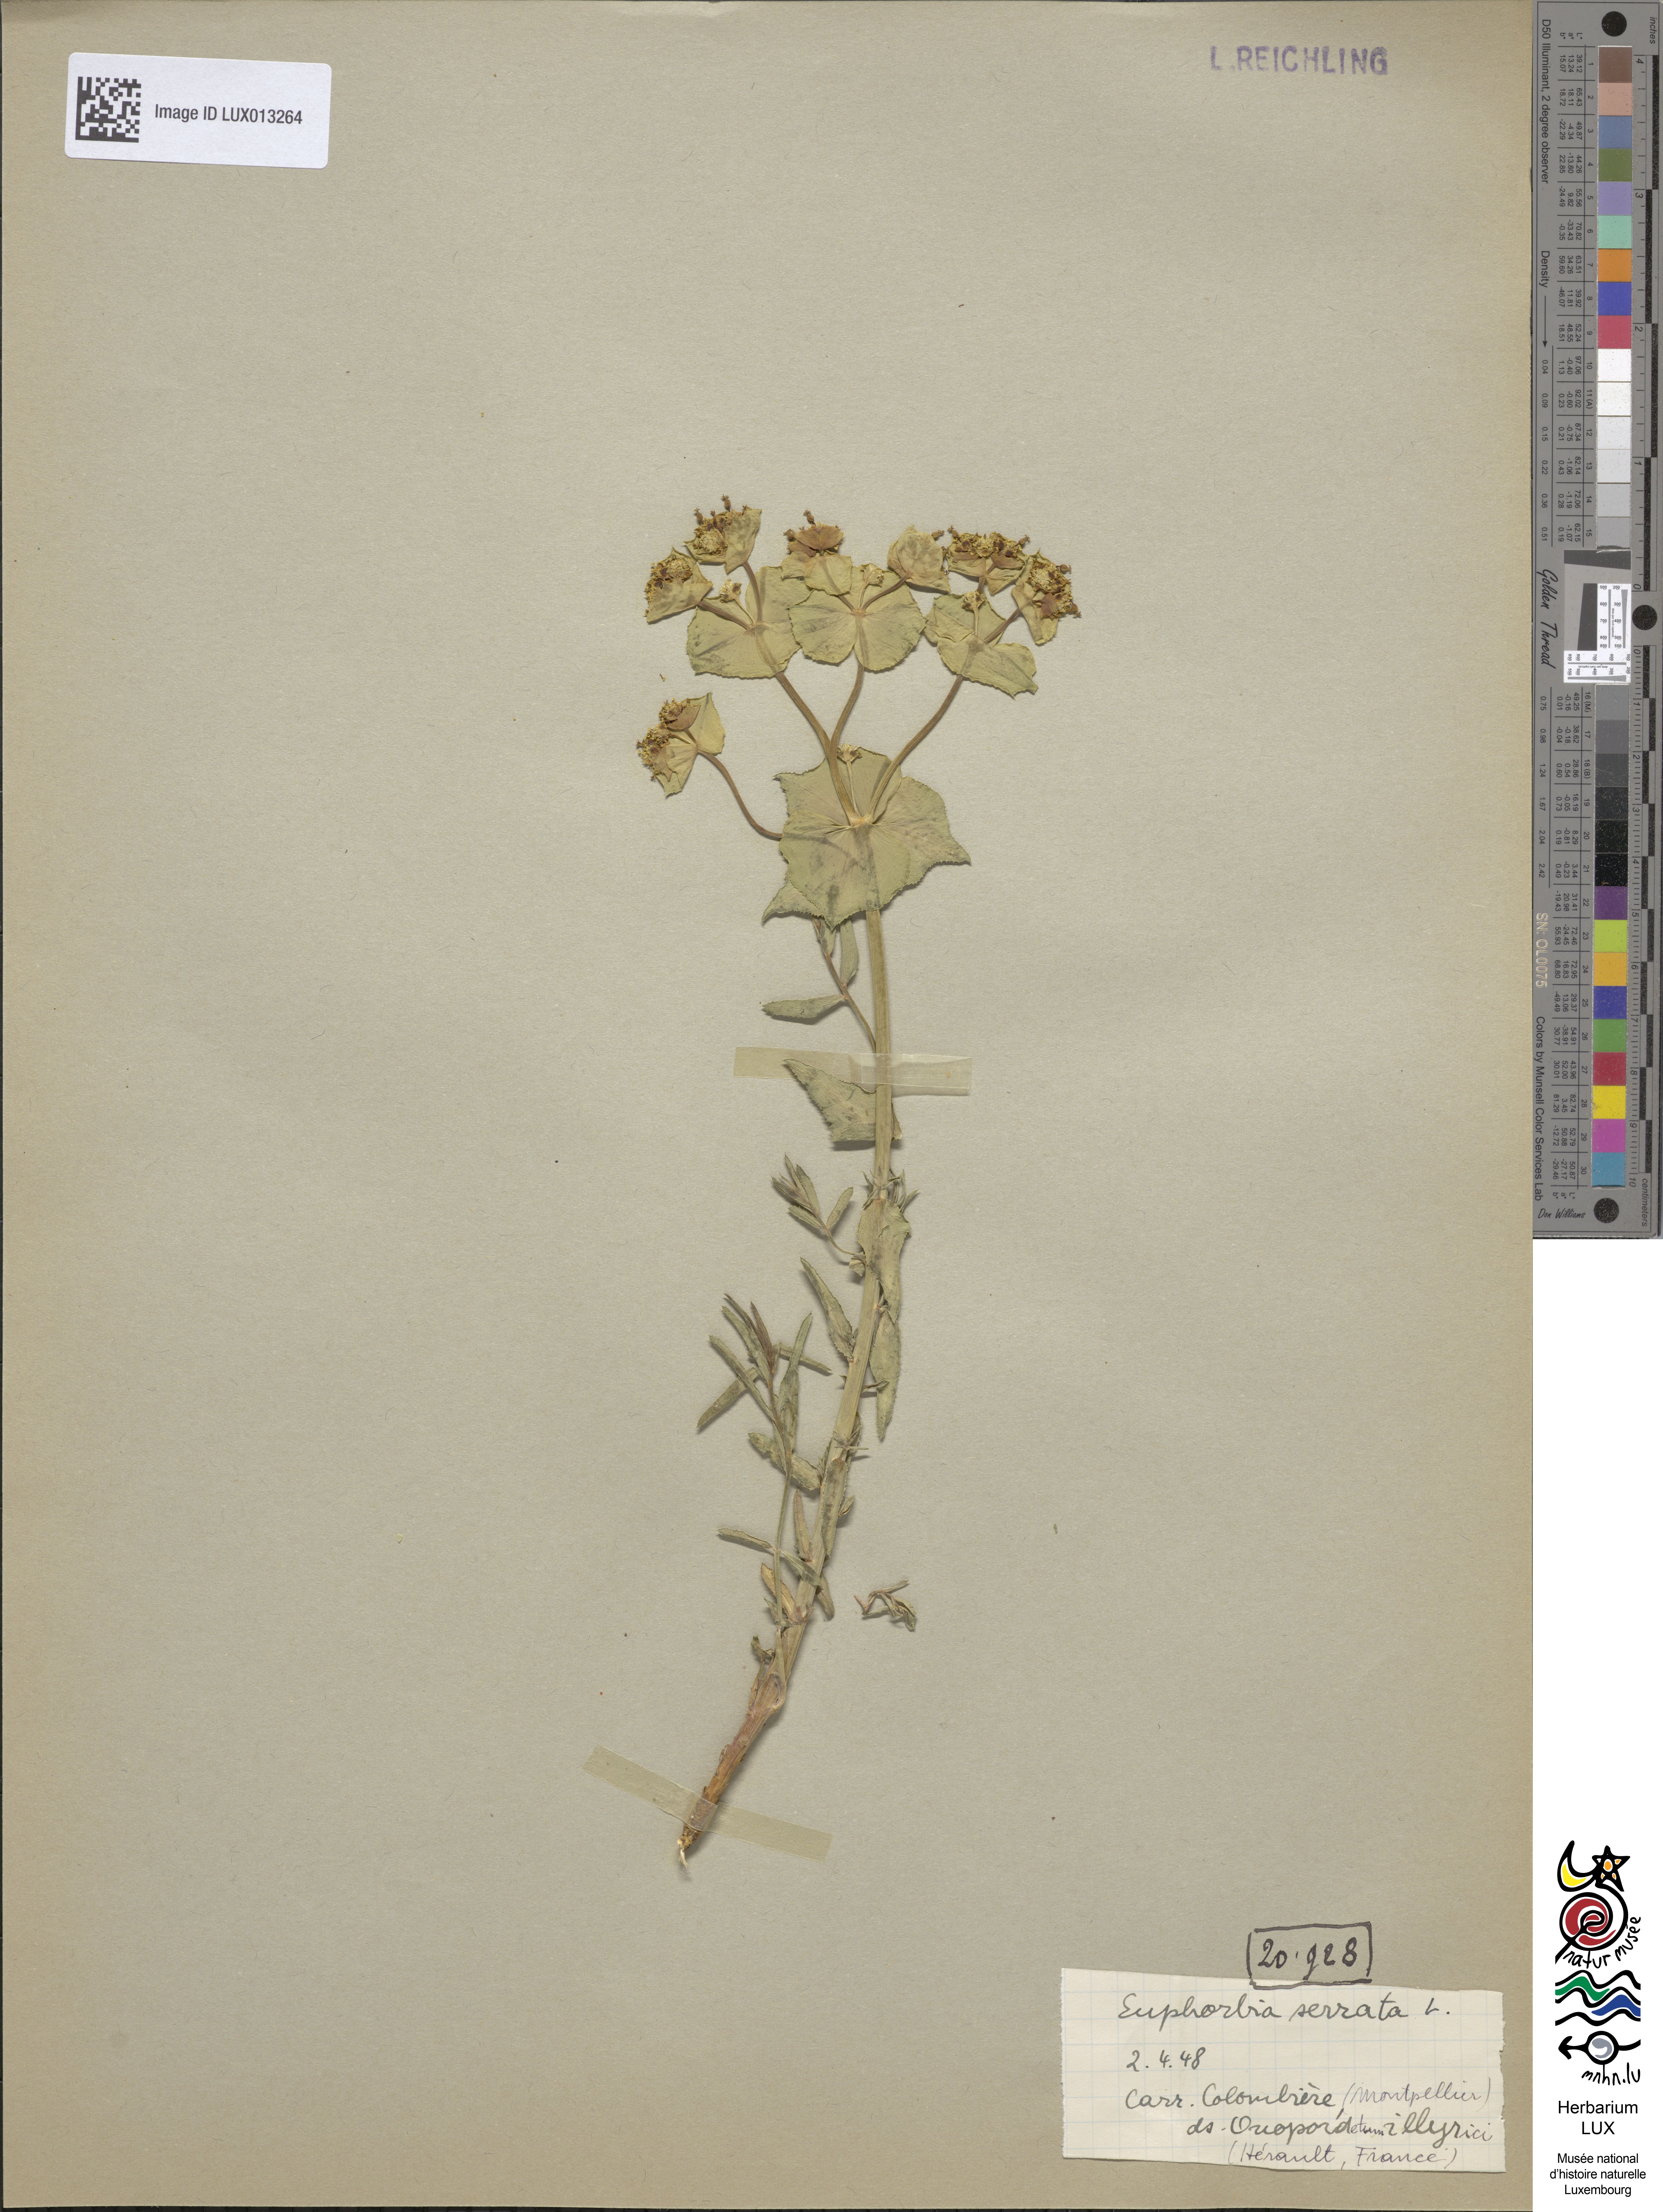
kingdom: Plantae
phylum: Tracheophyta
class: Magnoliopsida
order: Malpighiales
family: Euphorbiaceae
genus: Euphorbia
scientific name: Euphorbia serrata
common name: Serrate spurge
